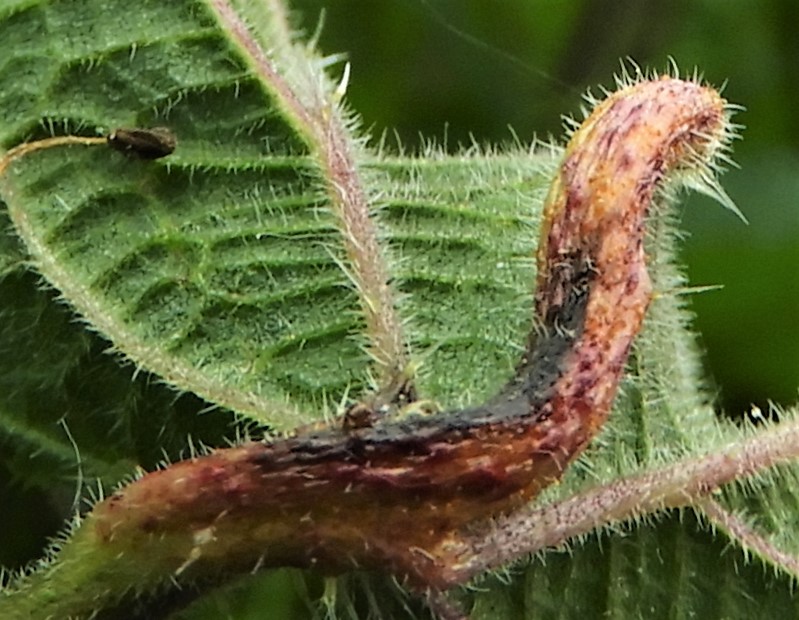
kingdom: Fungi
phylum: Basidiomycota
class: Pucciniomycetes
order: Pucciniales
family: Pucciniaceae
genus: Puccinia
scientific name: Puccinia urticata
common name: nældegalle-tvecellerust
